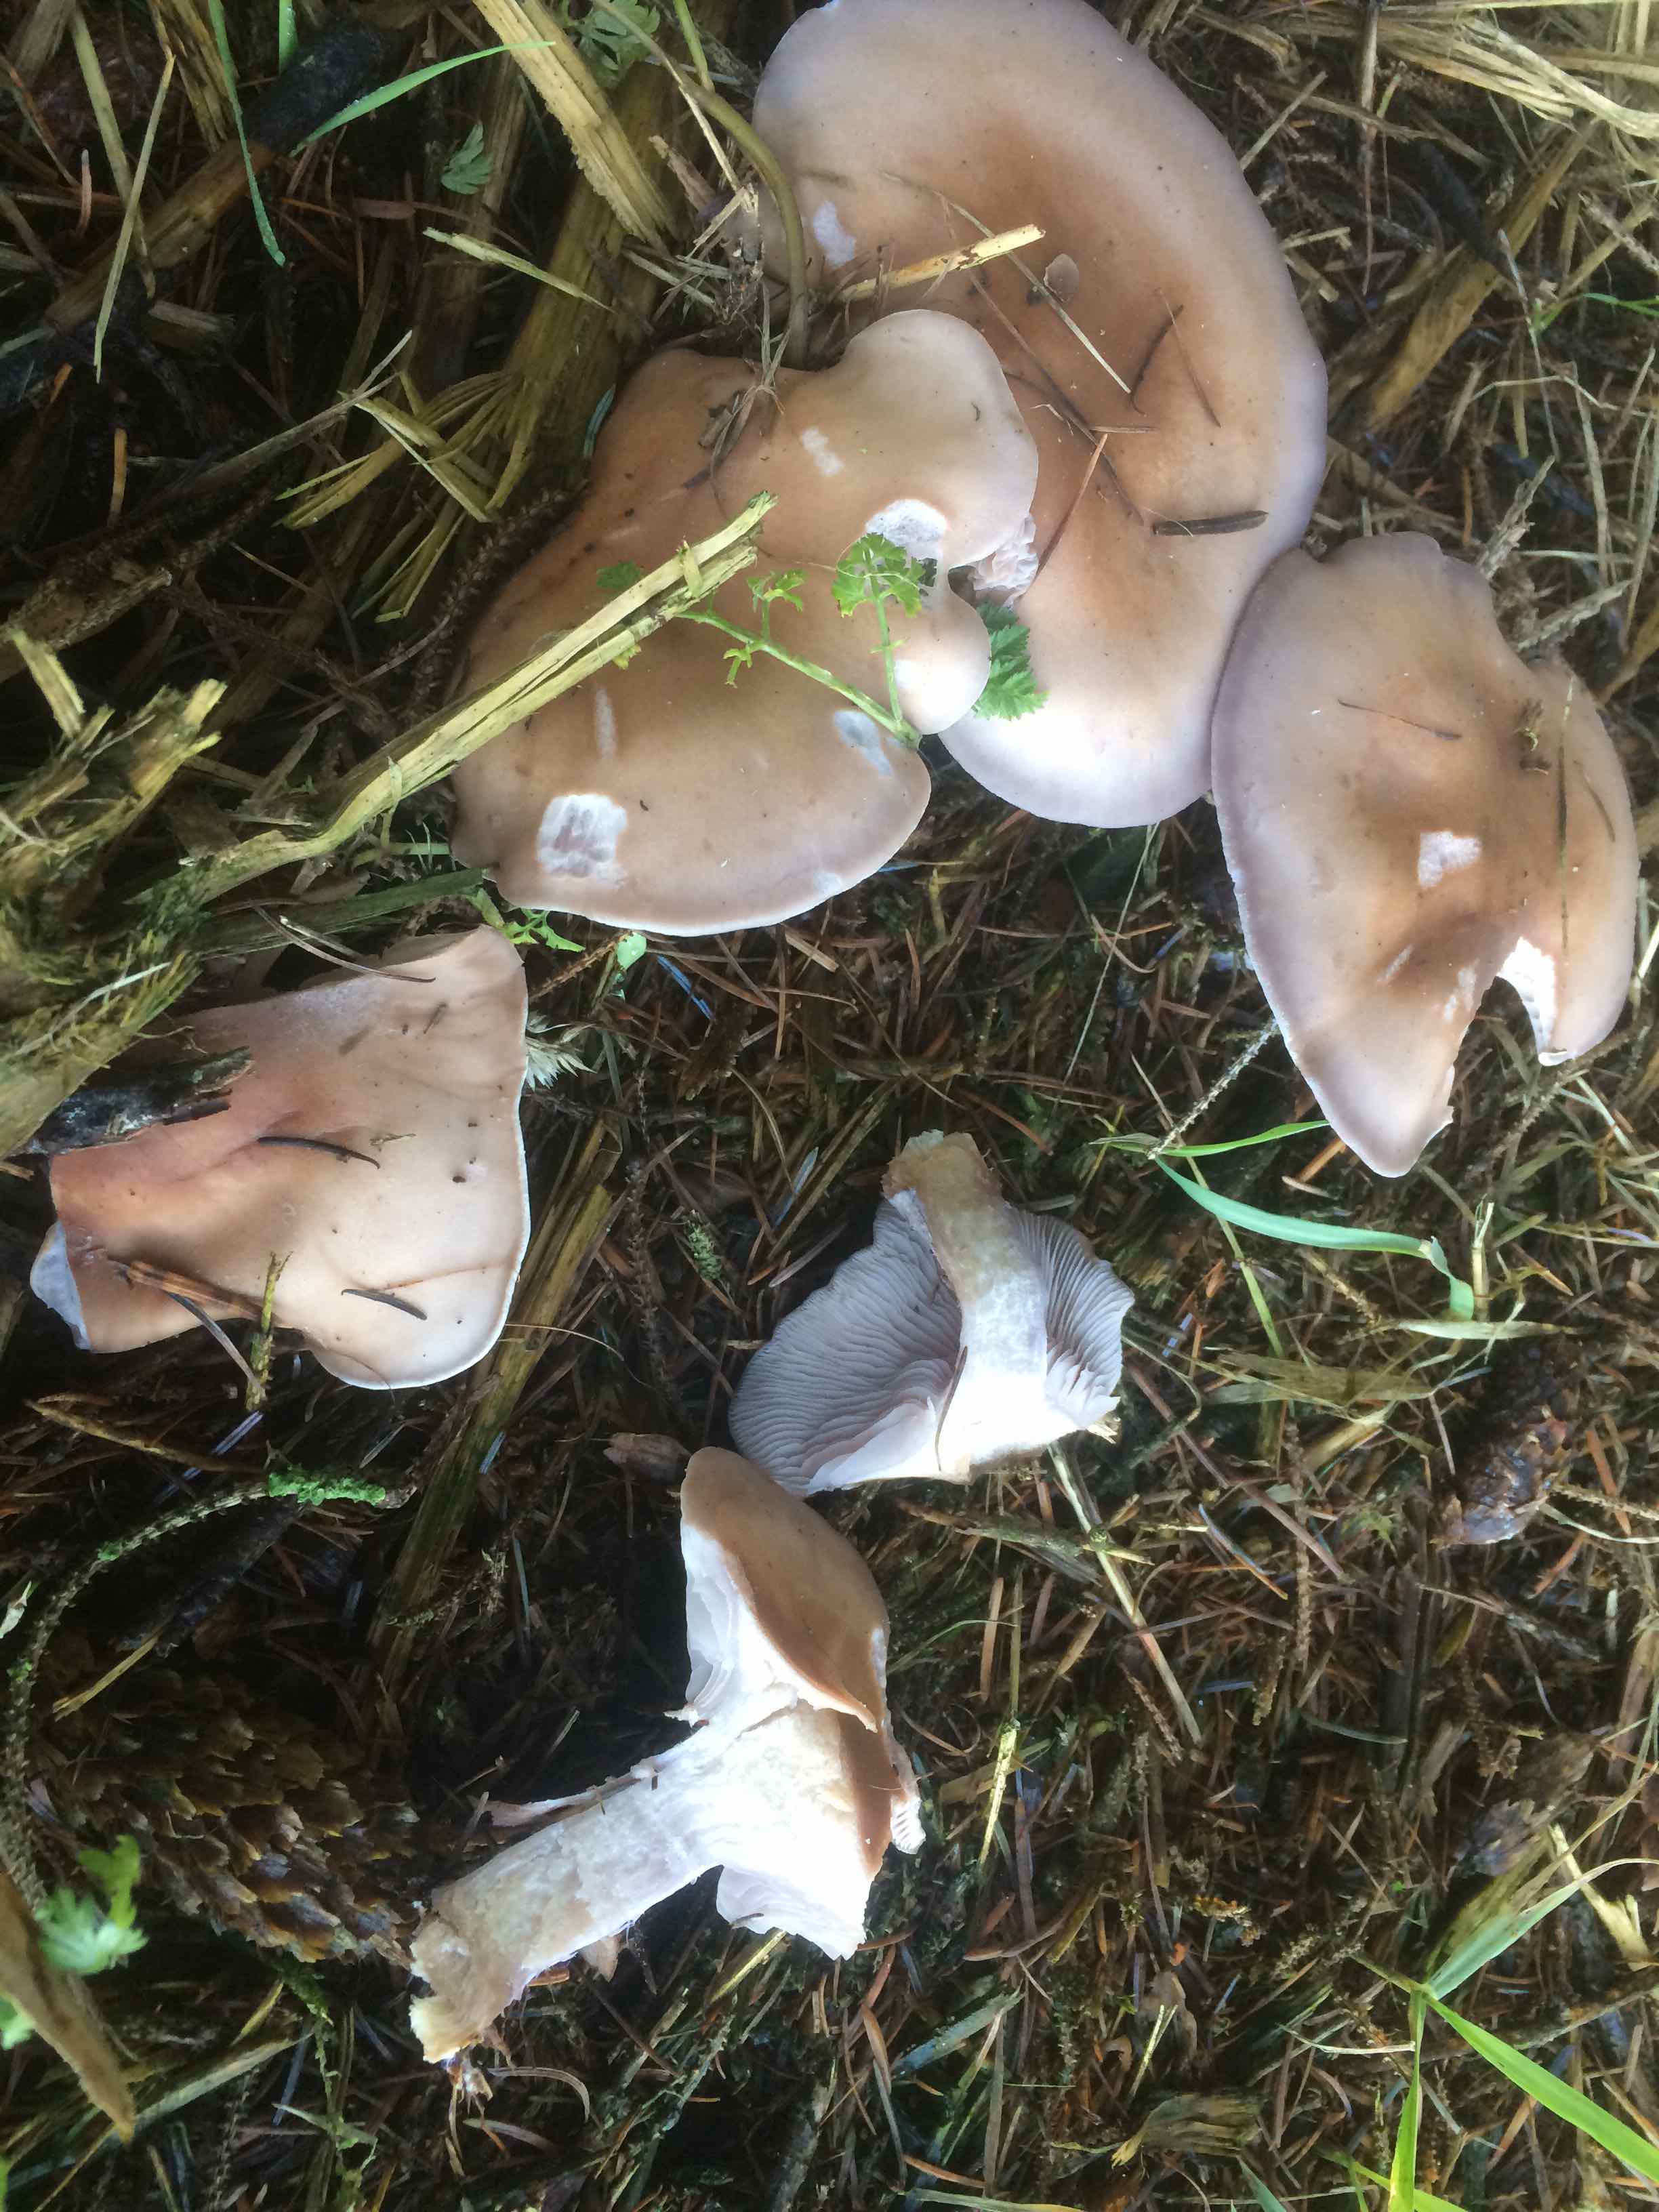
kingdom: Fungi
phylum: Basidiomycota
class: Agaricomycetes
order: Agaricales
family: Tricholomataceae
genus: Lepista
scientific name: Lepista nuda
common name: violet hekseringshat
